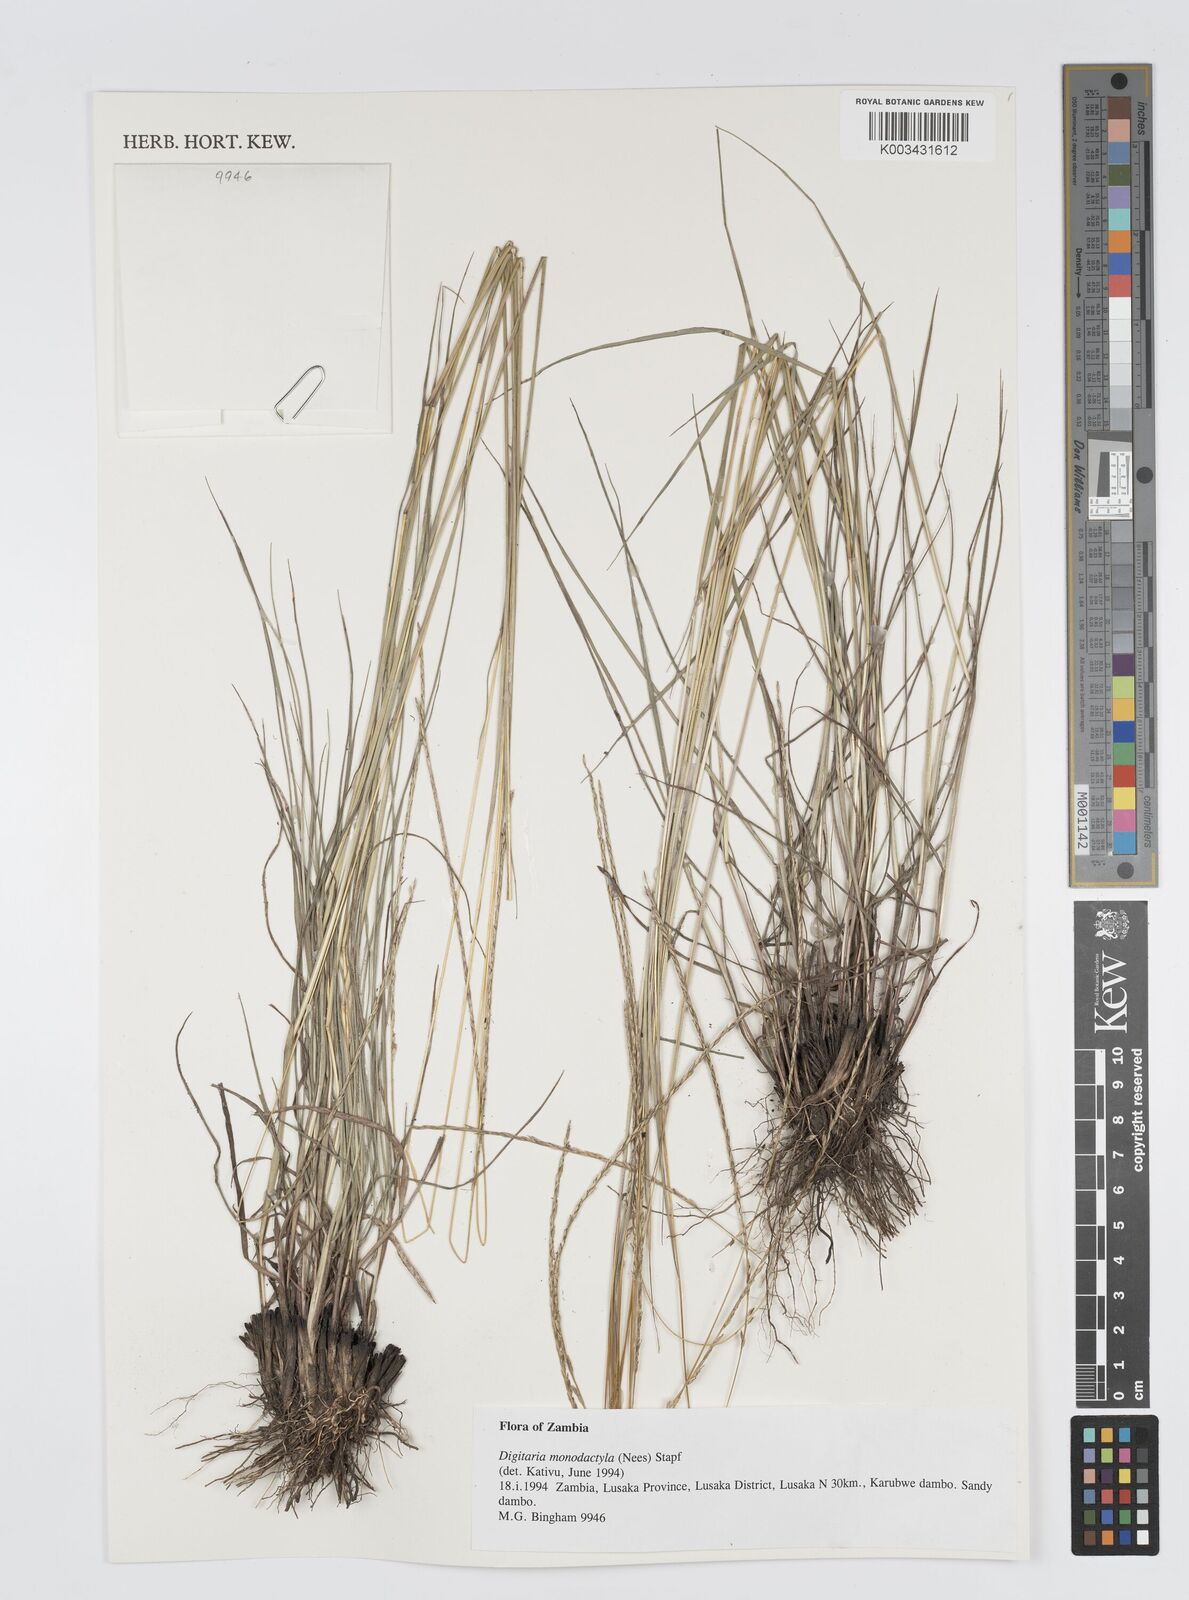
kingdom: Plantae
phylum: Tracheophyta
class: Liliopsida
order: Poales
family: Poaceae
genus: Digitaria
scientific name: Digitaria monodactyla
